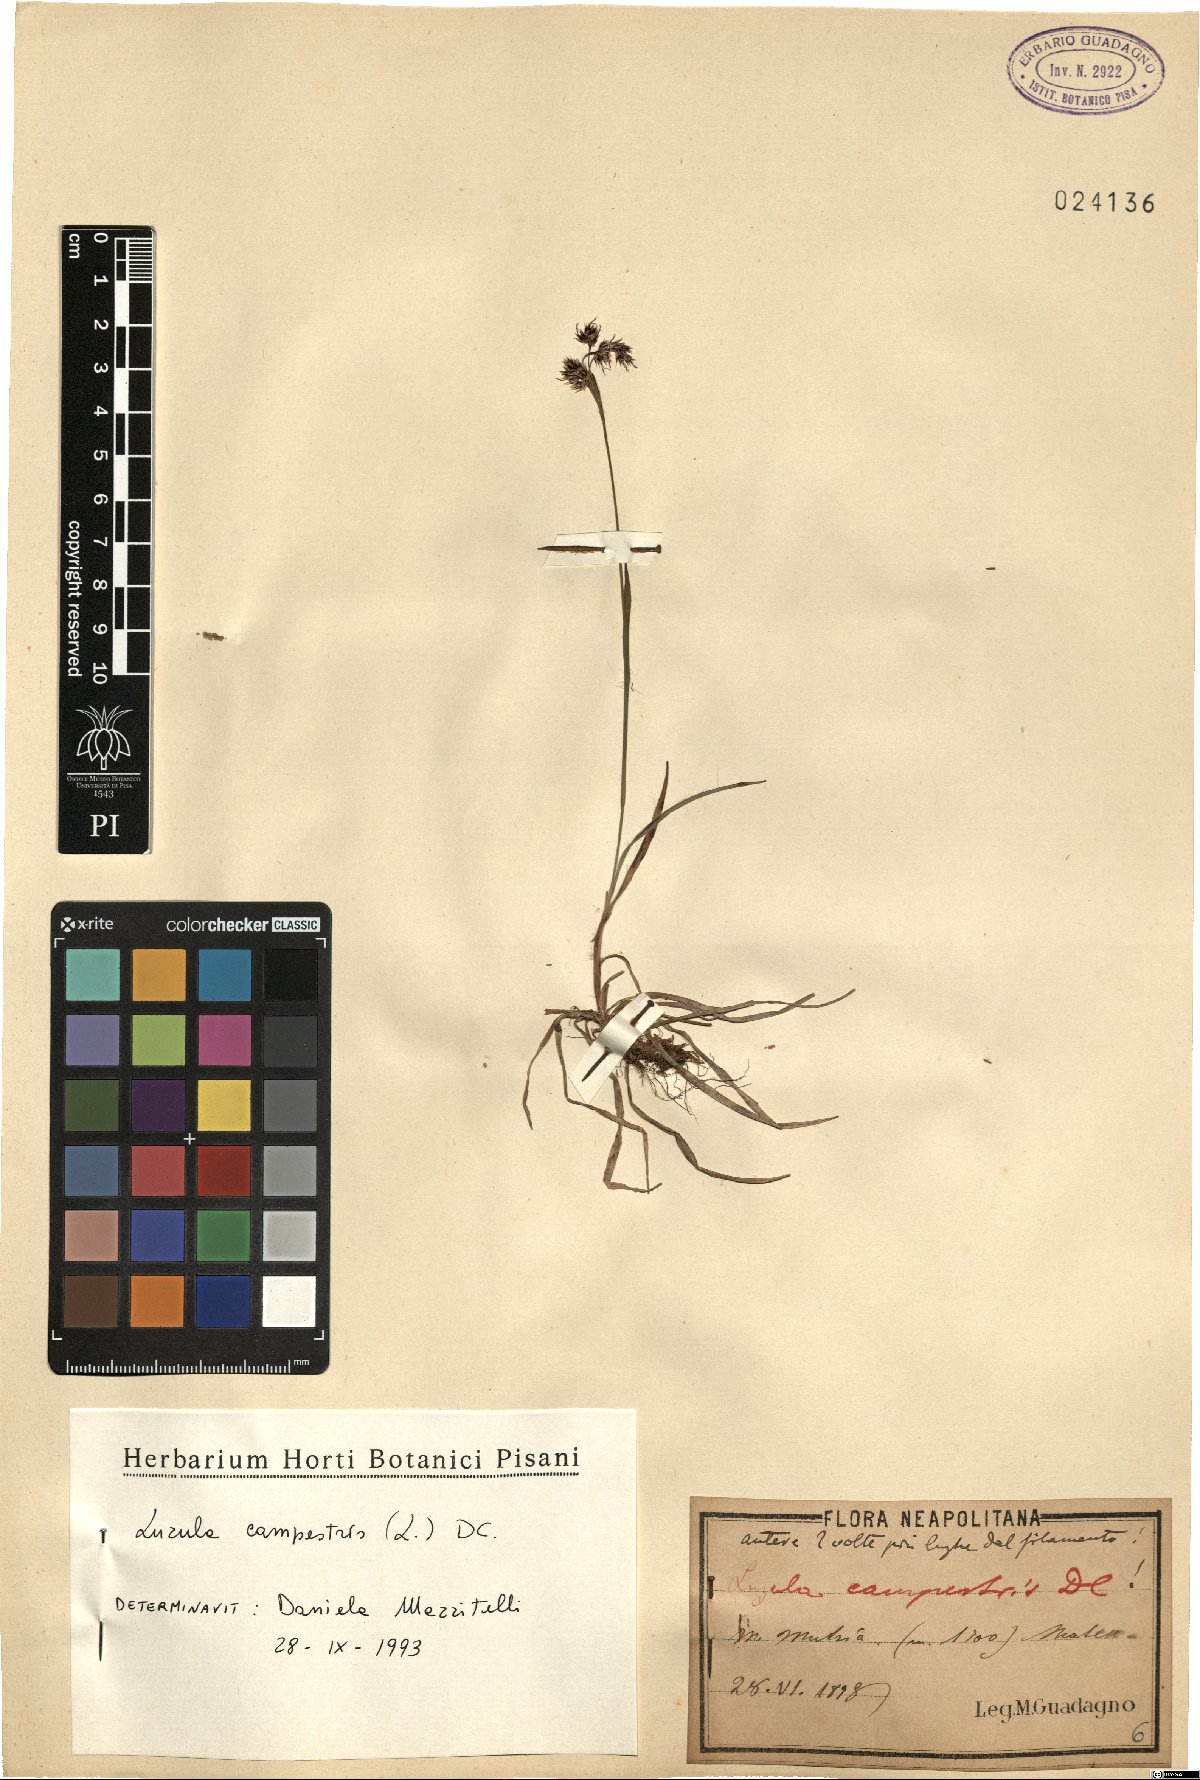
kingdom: Plantae
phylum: Tracheophyta
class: Liliopsida
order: Poales
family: Juncaceae
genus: Luzula
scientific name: Luzula campestris
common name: Field wood-rush
